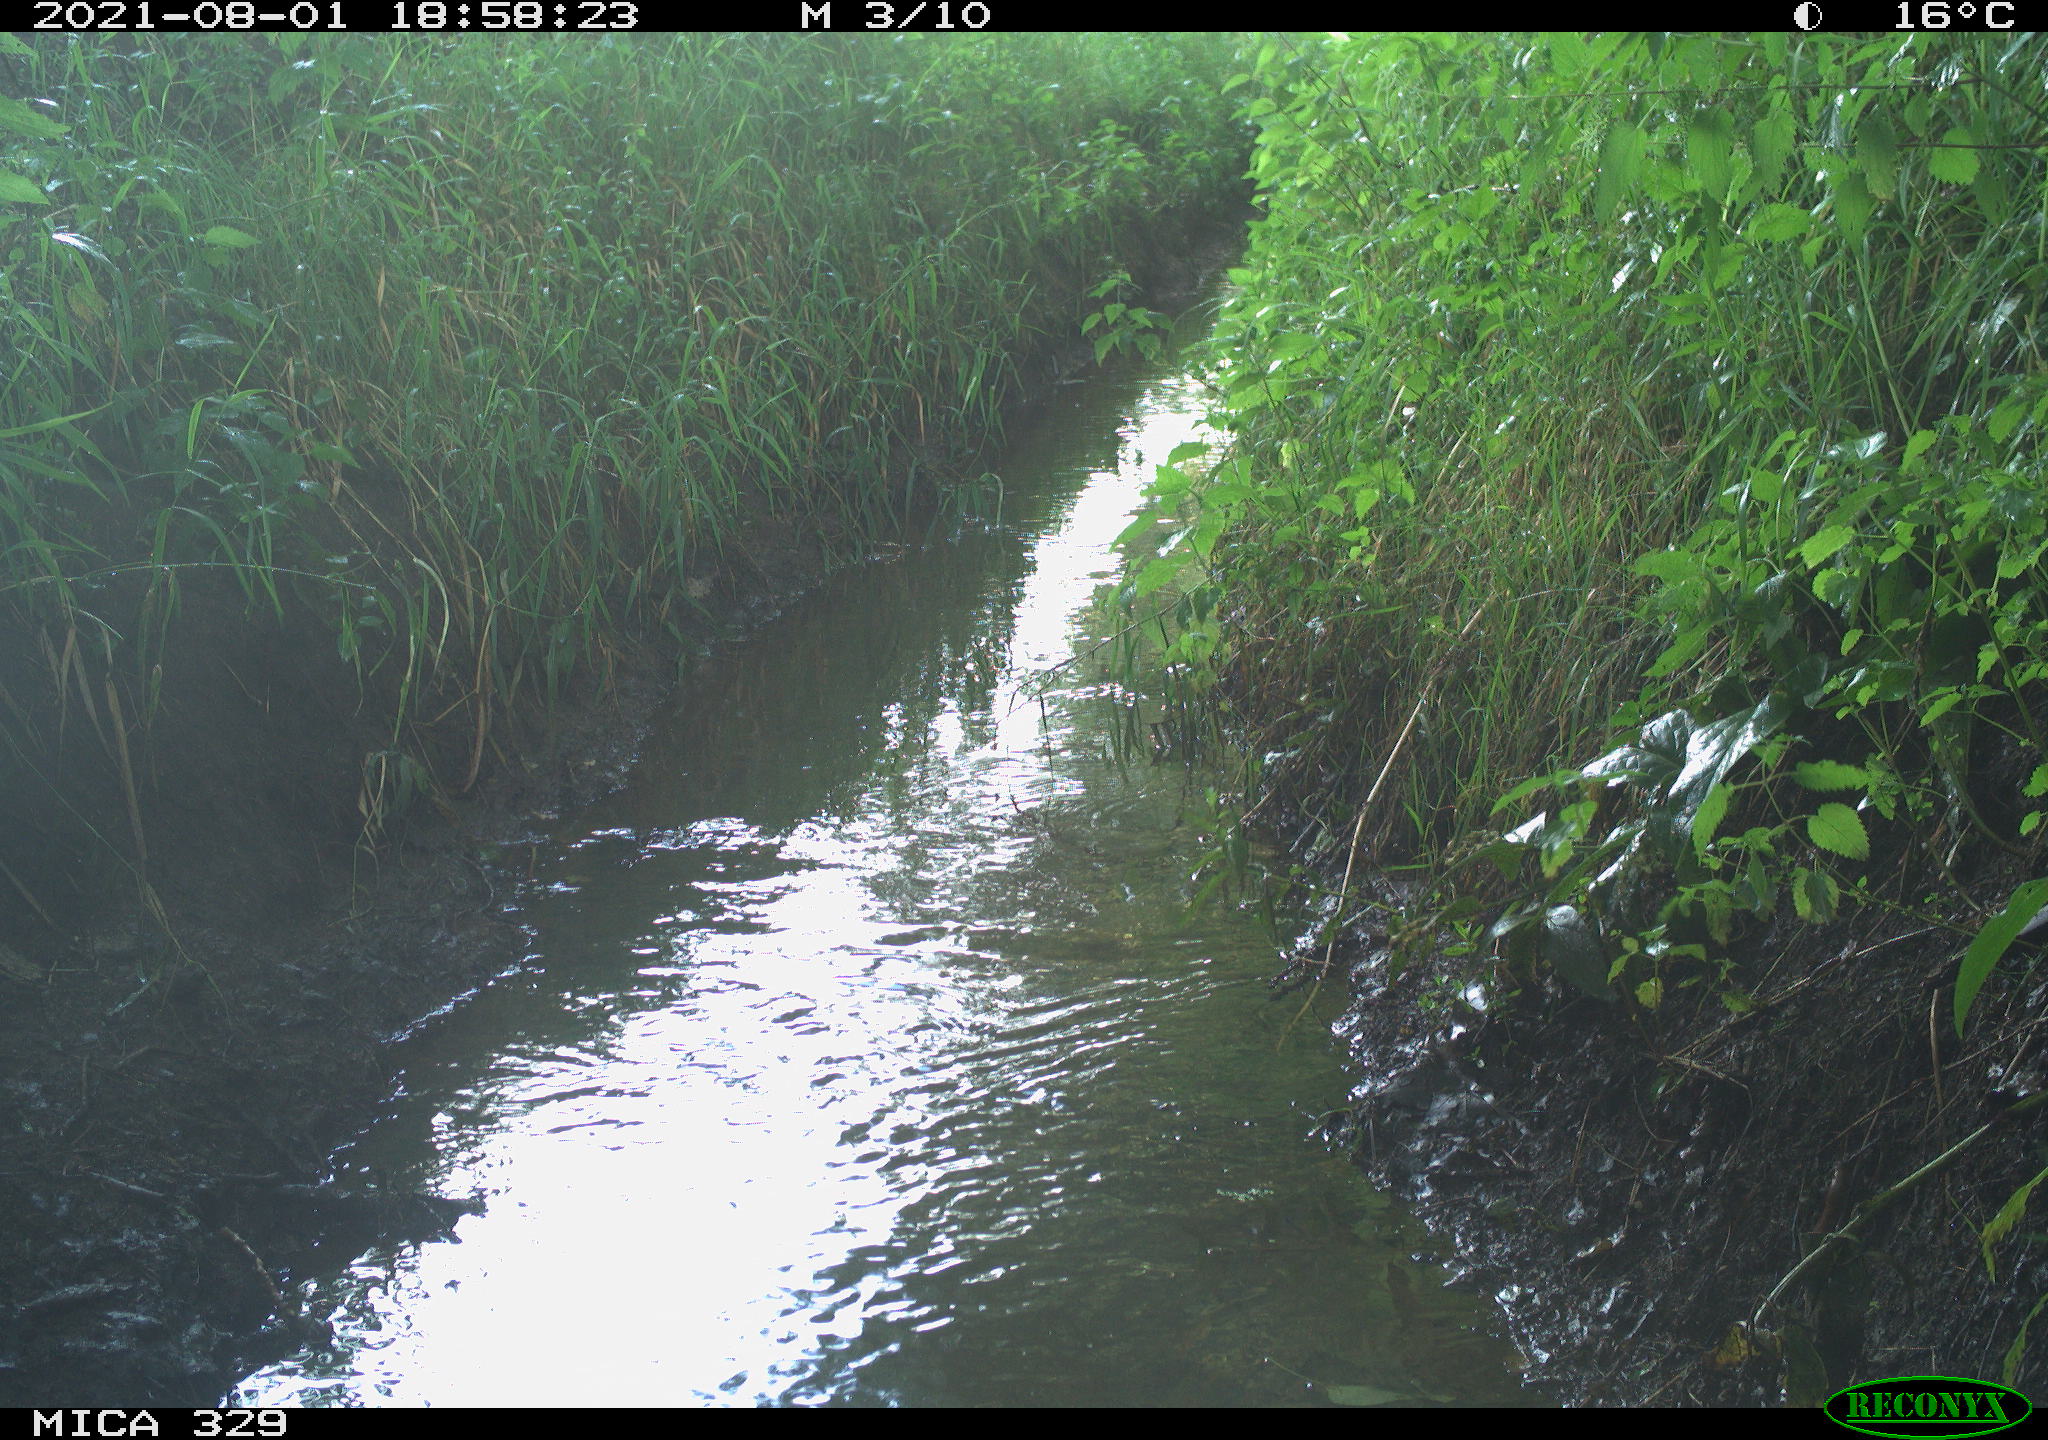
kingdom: Animalia
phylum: Chordata
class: Aves
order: Columbiformes
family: Columbidae
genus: Columba
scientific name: Columba palumbus
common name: Common wood pigeon
